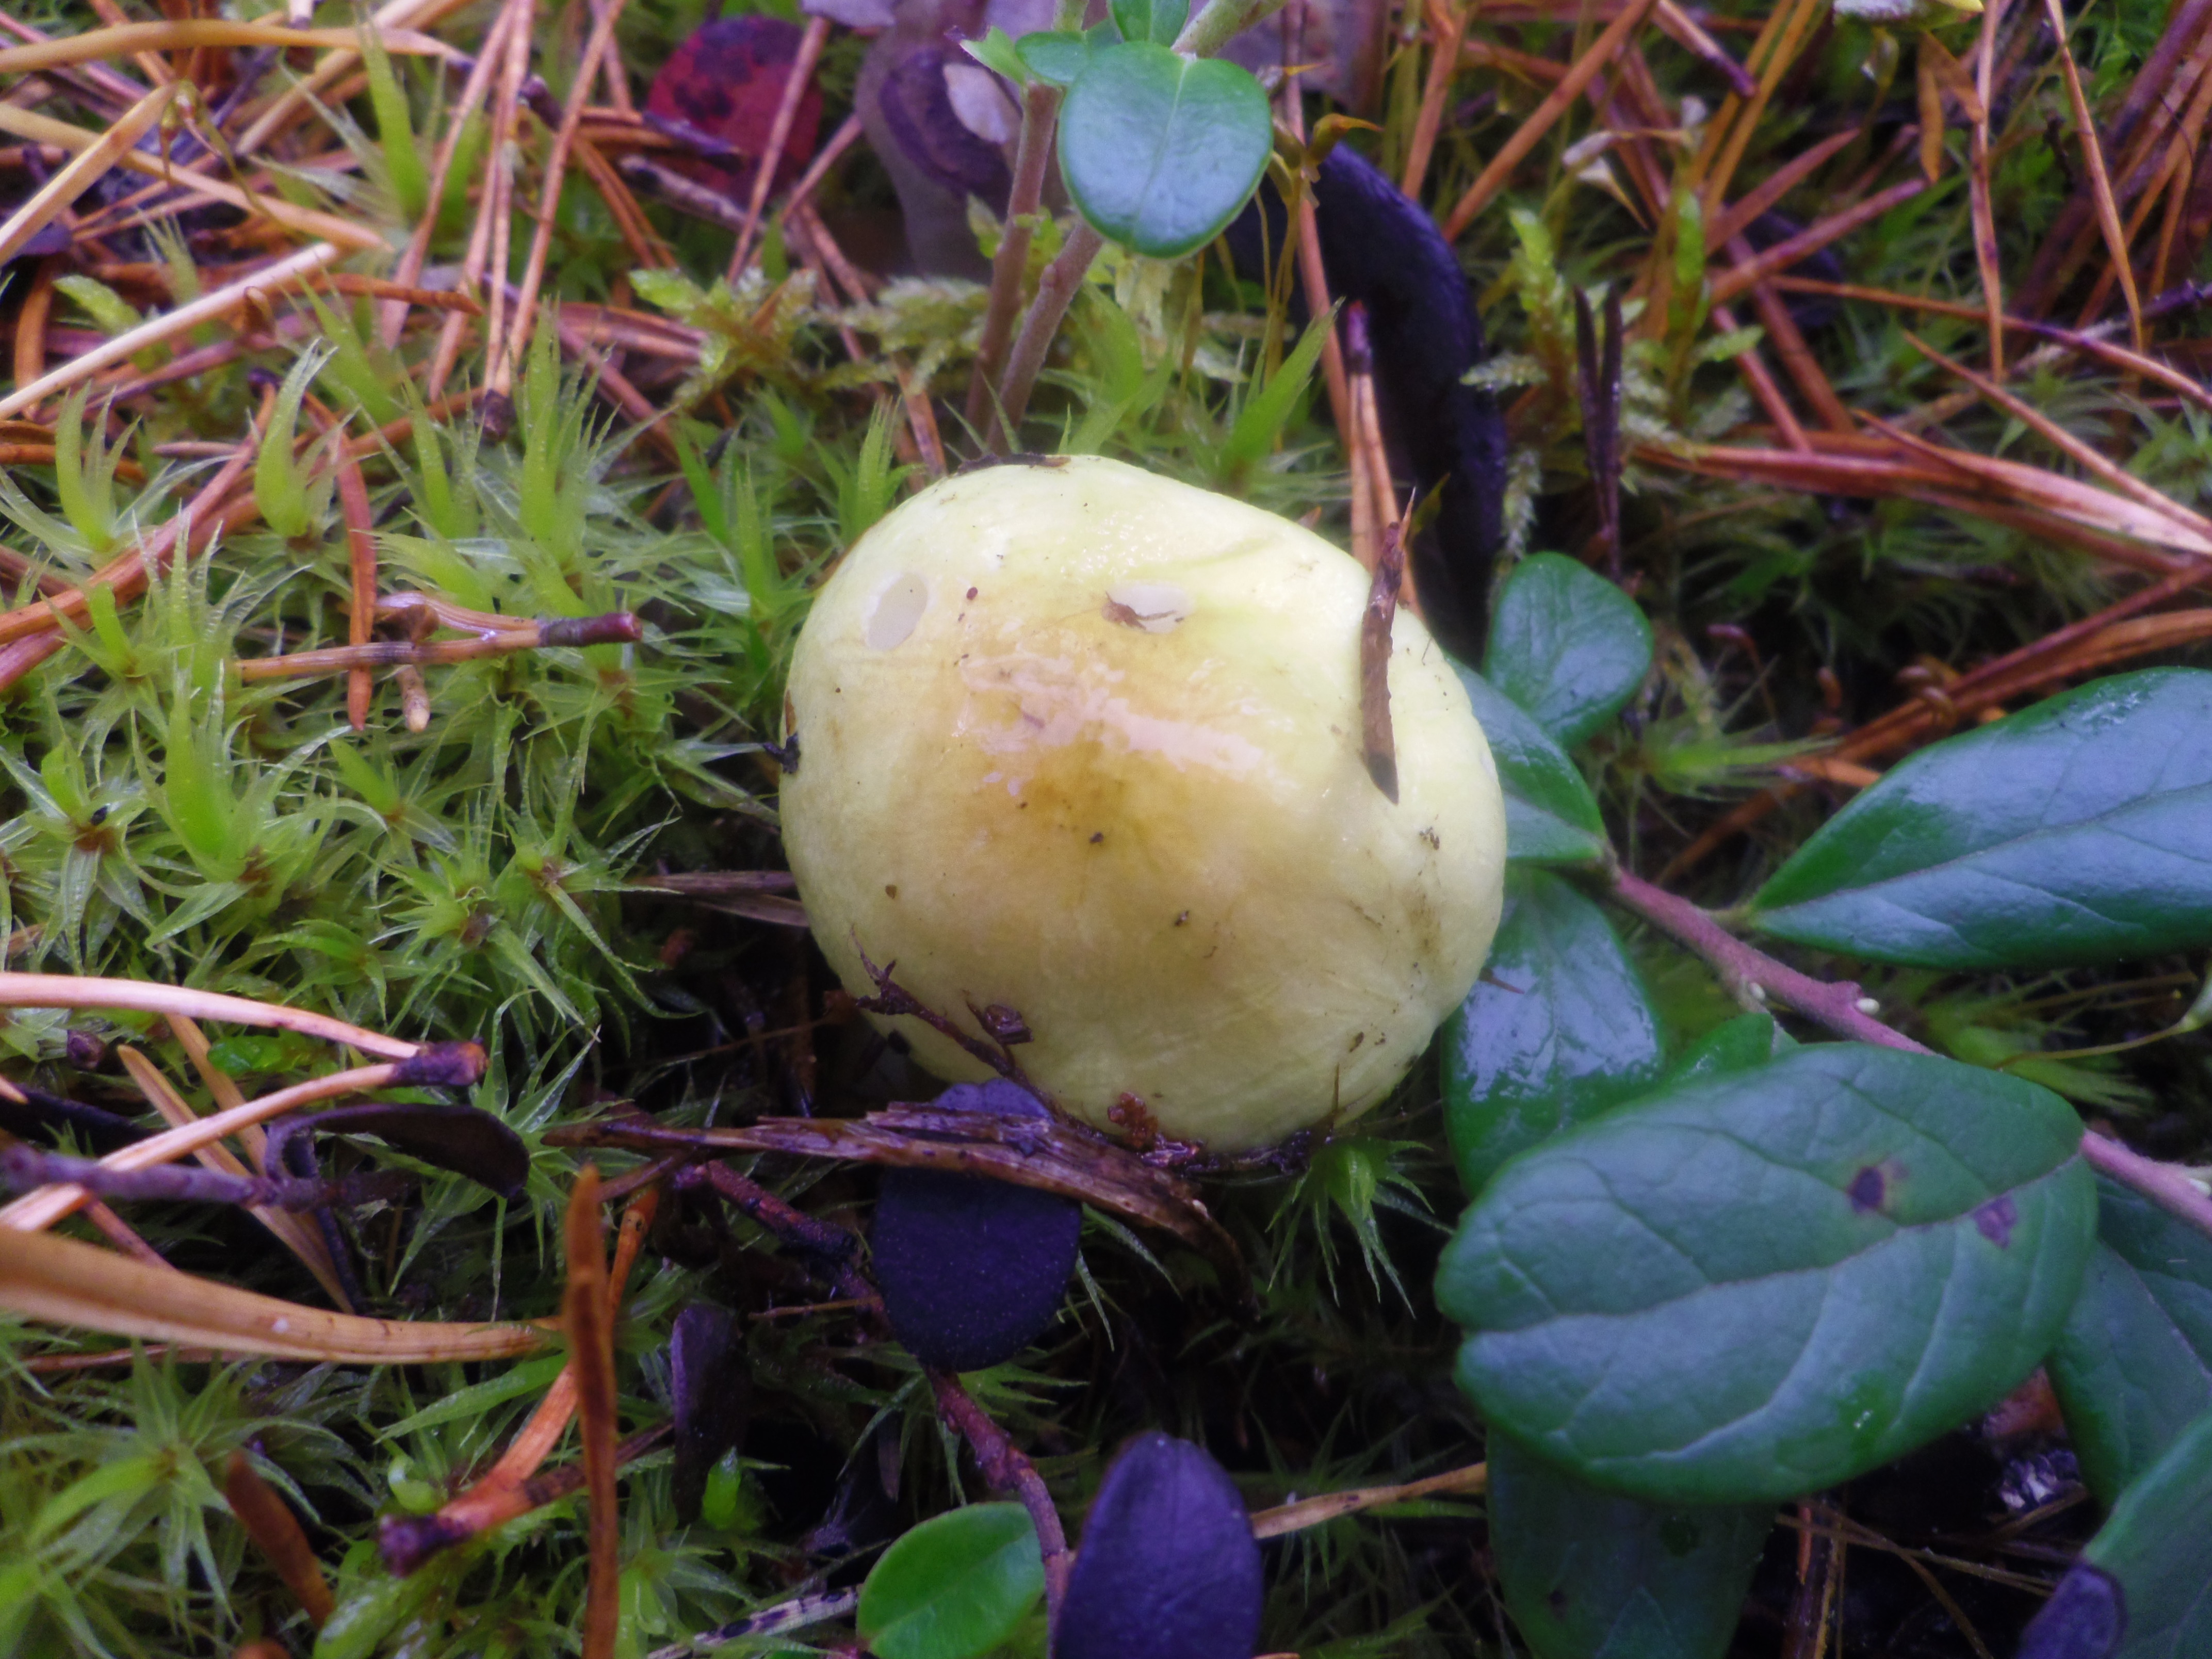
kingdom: Fungi
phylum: Basidiomycota
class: Agaricomycetes
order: Agaricales
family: Tricholomataceae
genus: Tricholoma
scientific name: Tricholoma ulvinenii
